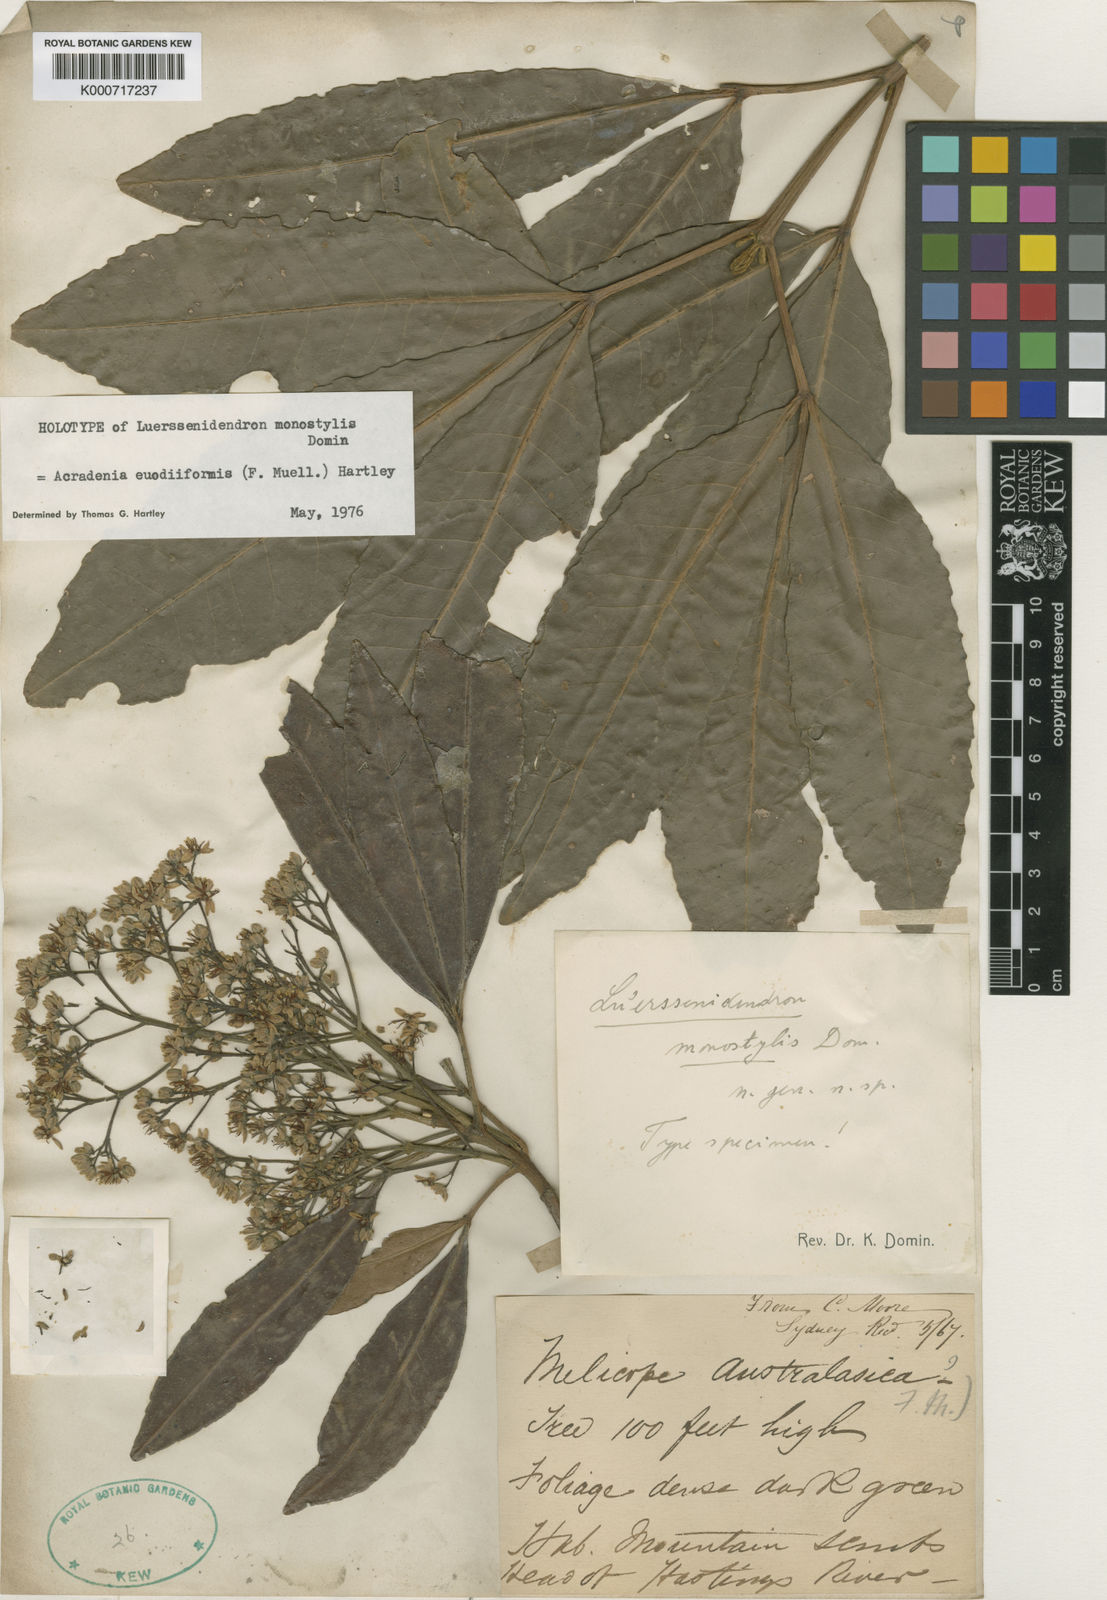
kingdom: Plantae
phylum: Tracheophyta
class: Magnoliopsida
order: Sapindales
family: Rutaceae
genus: Acradenia
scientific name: Acradenia euodiiformis
